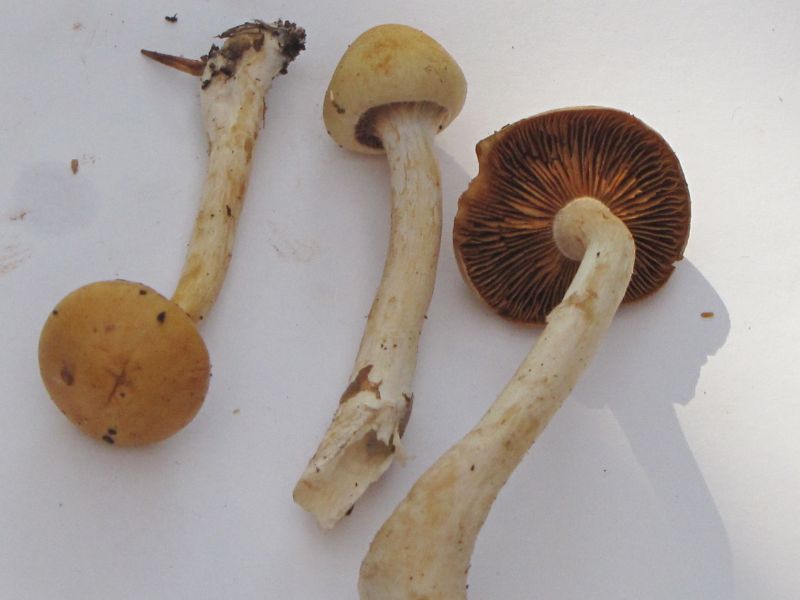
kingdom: Fungi
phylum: Basidiomycota
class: Agaricomycetes
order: Agaricales
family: Cortinariaceae
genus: Cortinarius
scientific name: Cortinarius delibutus
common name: gul slørhat
